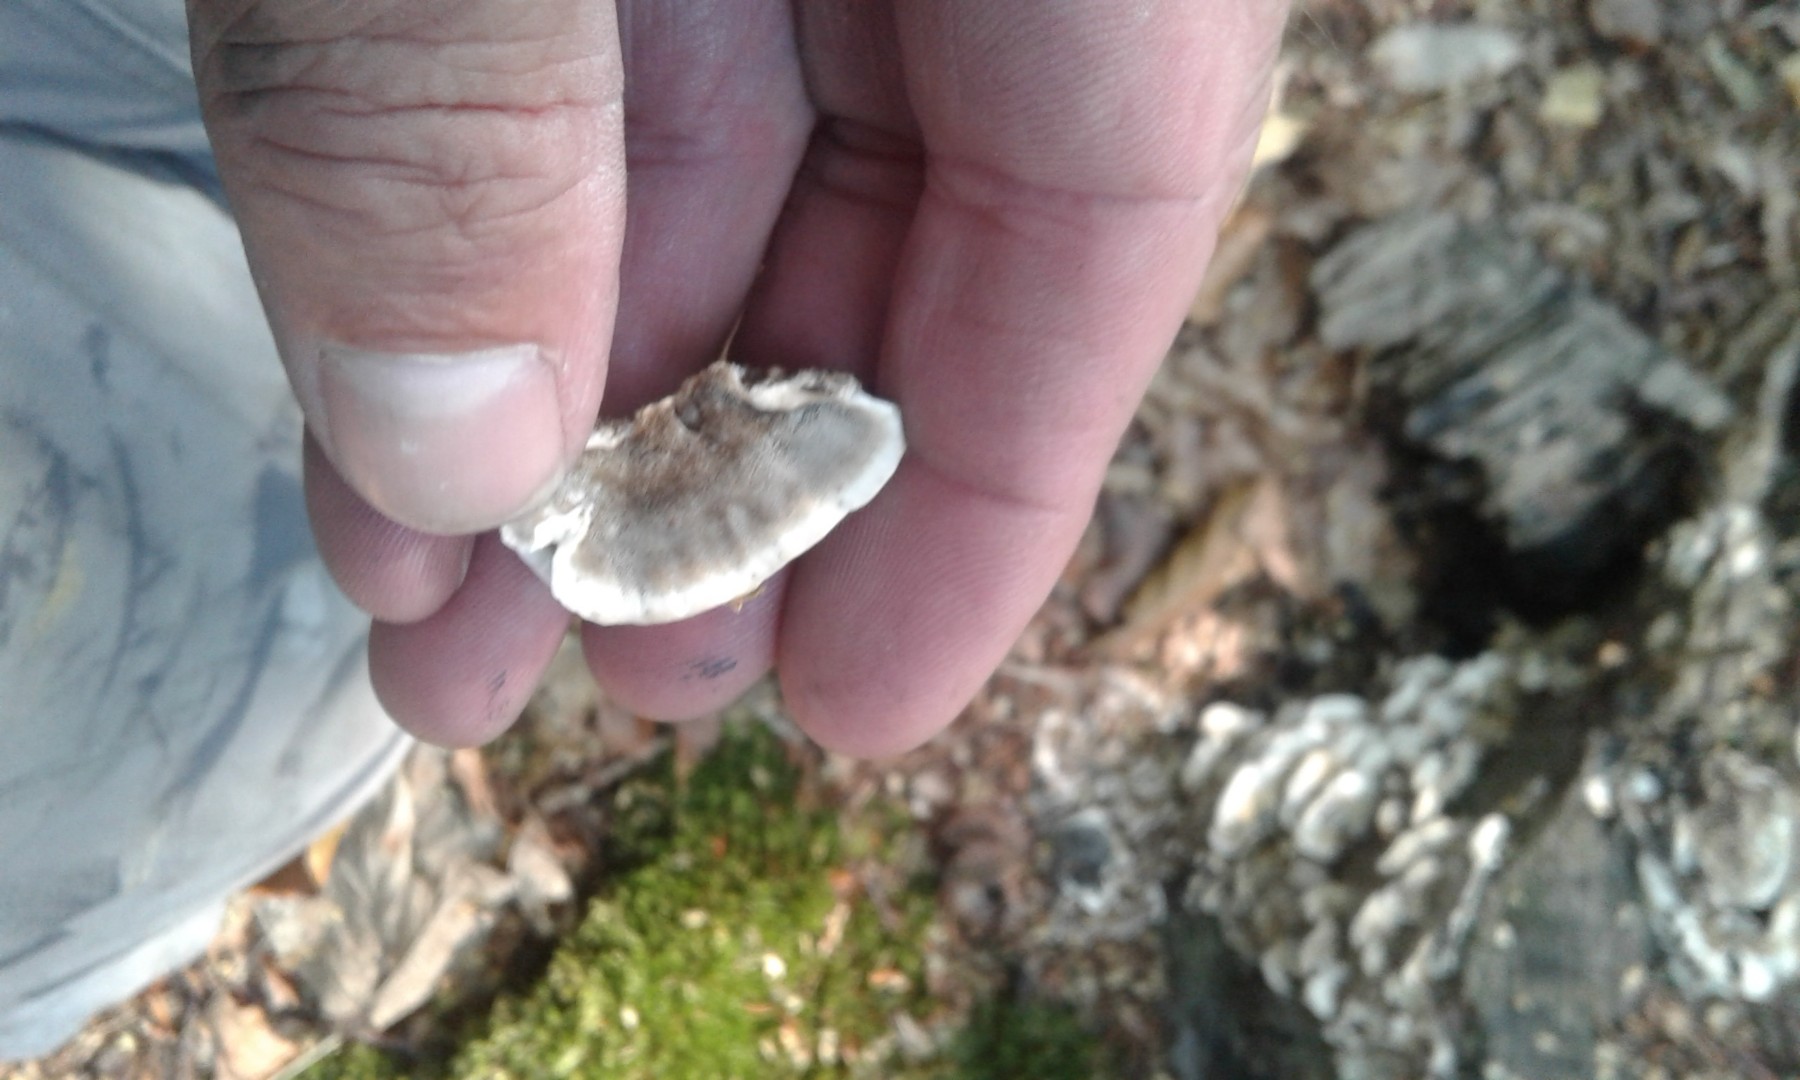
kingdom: Fungi
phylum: Basidiomycota
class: Agaricomycetes
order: Polyporales
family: Phanerochaetaceae
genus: Bjerkandera
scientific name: Bjerkandera adusta
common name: sveden sodporesvamp
